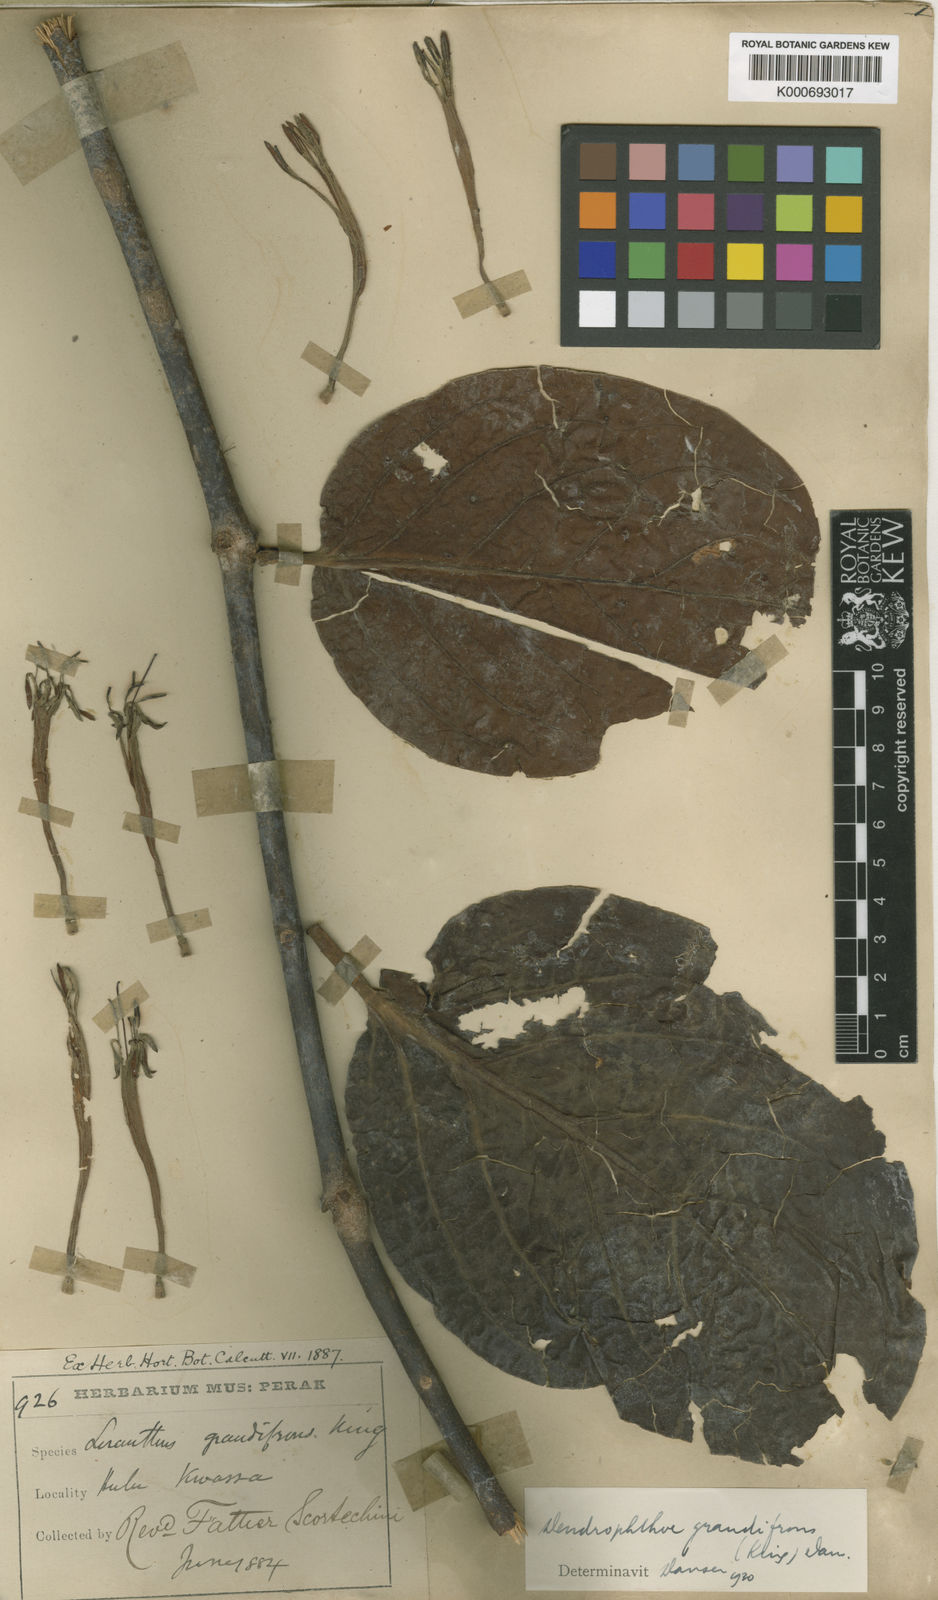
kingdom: Plantae
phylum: Tracheophyta
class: Magnoliopsida
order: Santalales
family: Loranthaceae
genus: Dendrophthoe
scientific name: Dendrophthoe incarnata
